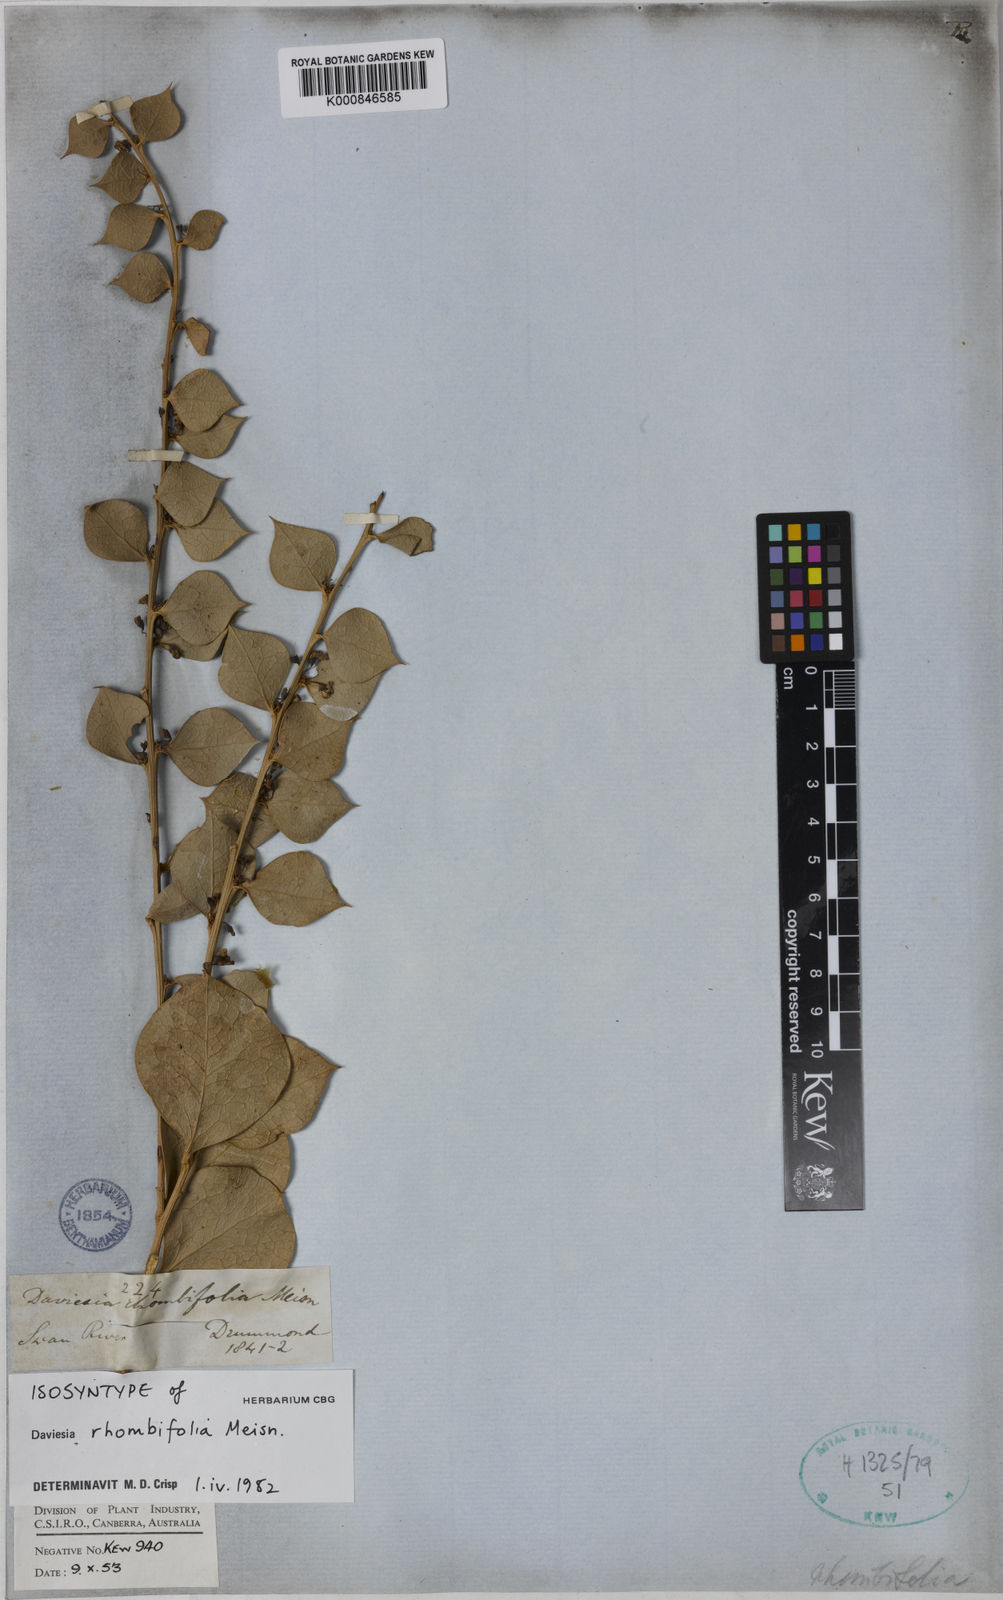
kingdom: Plantae
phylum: Tracheophyta
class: Magnoliopsida
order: Fabales
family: Fabaceae
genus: Daviesia
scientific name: Daviesia rhombifolia
